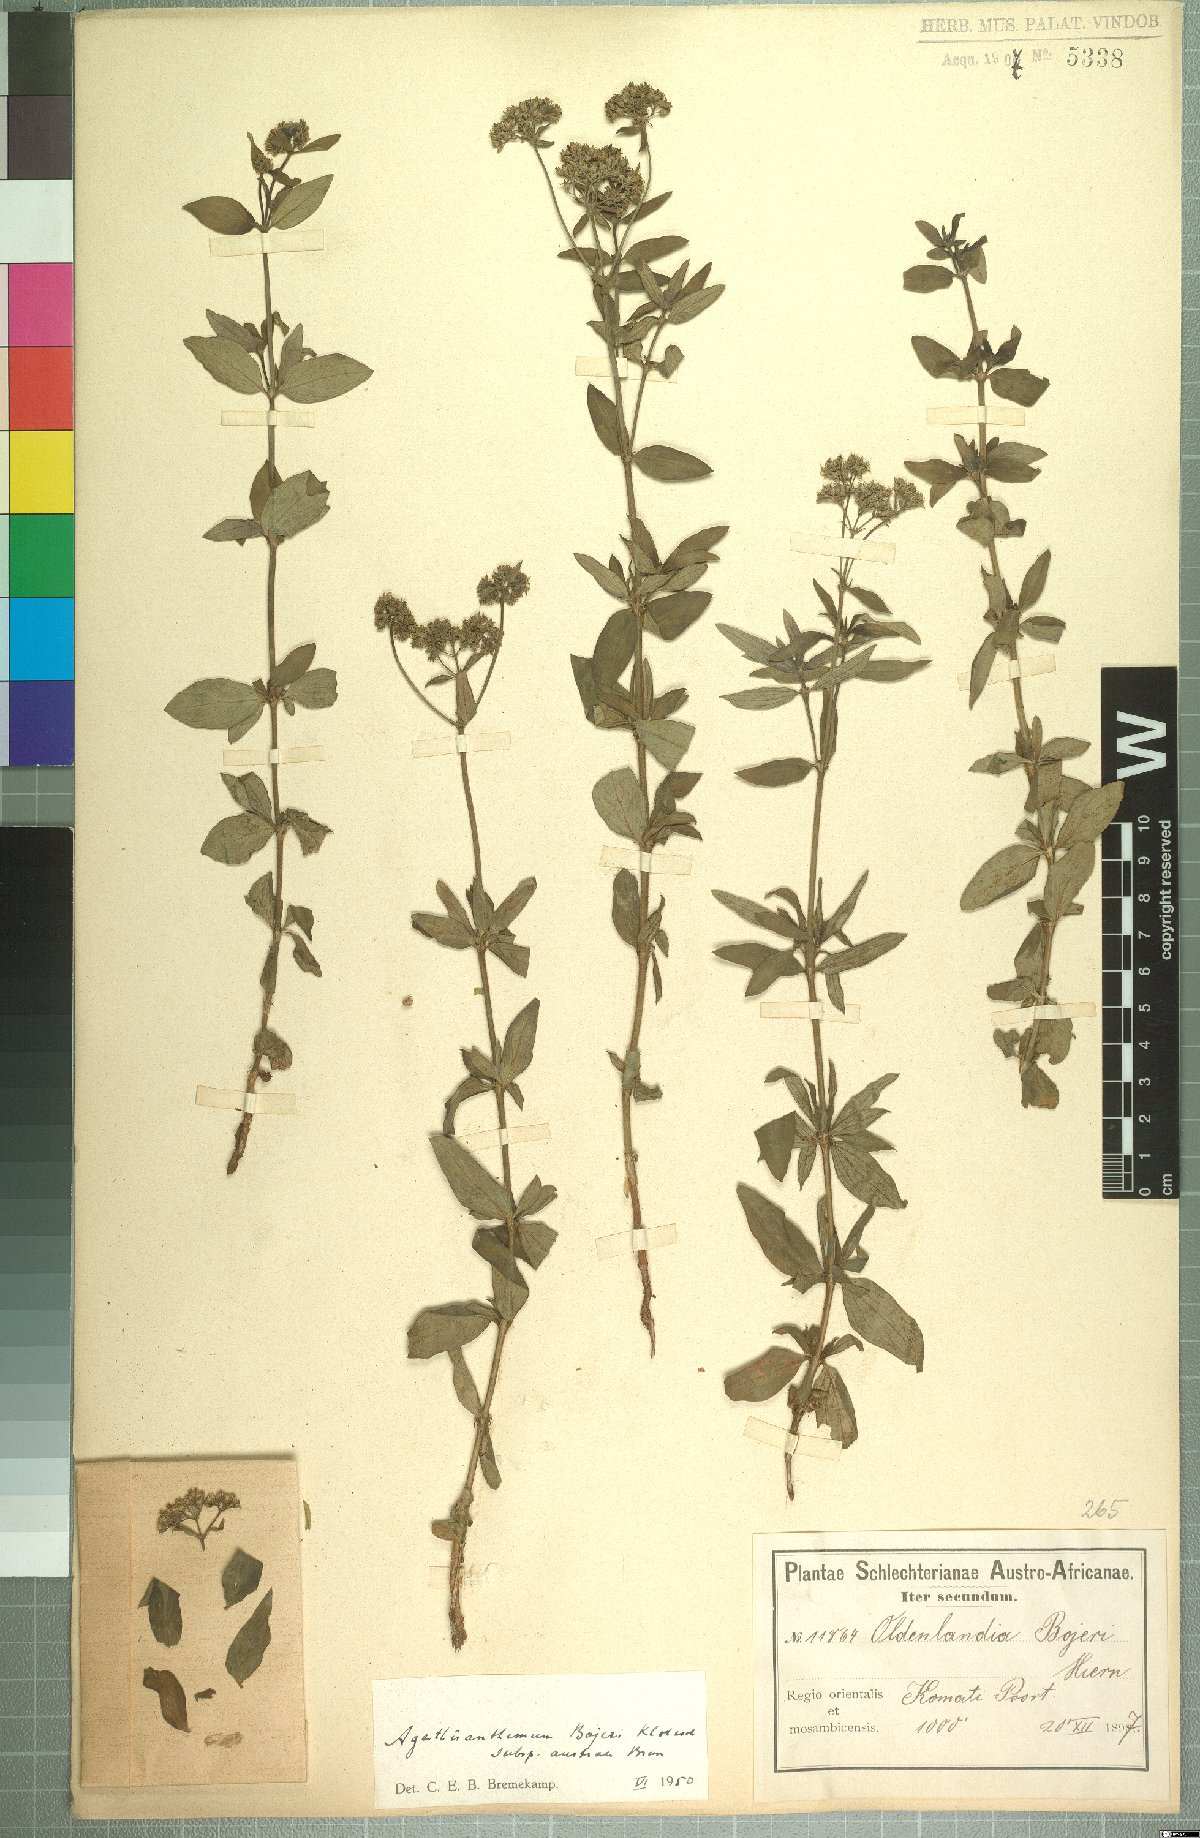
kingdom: Plantae
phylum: Tracheophyta
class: Magnoliopsida
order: Gentianales
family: Rubiaceae
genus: Agathisanthemum
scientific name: Agathisanthemum bojeri
